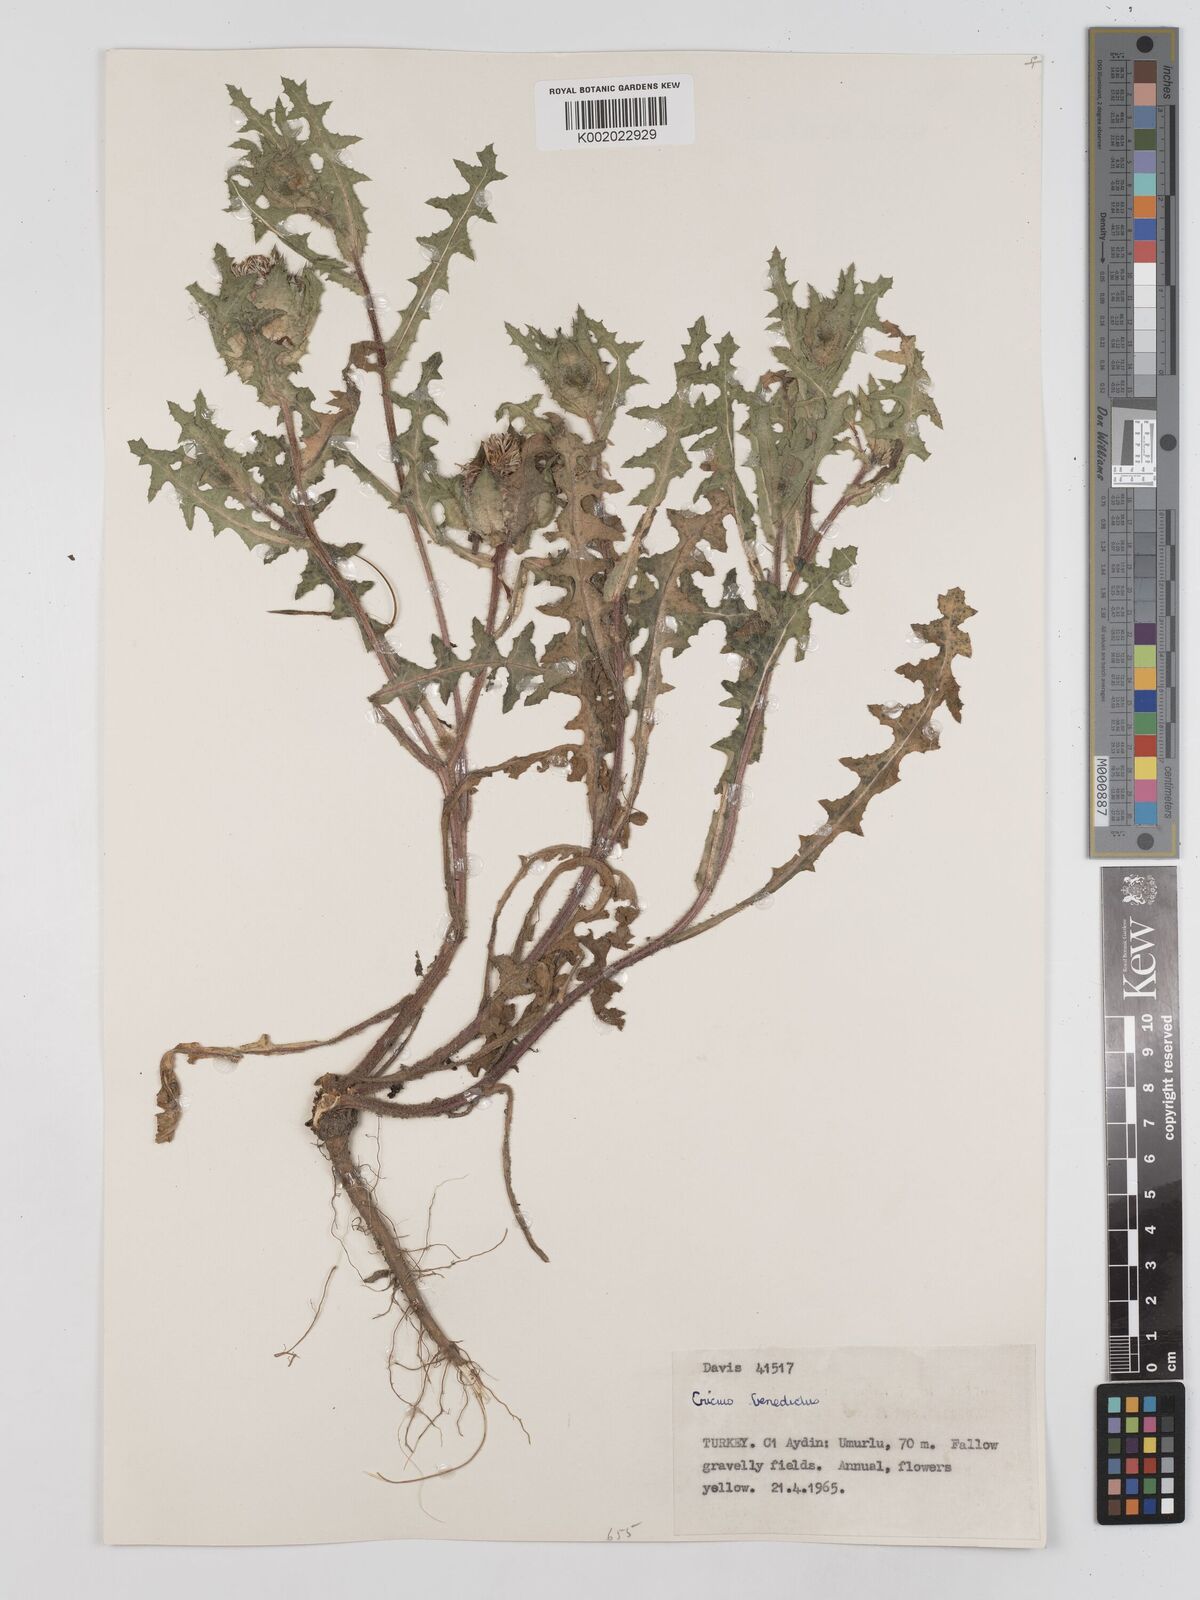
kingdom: Plantae
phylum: Tracheophyta
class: Magnoliopsida
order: Asterales
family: Asteraceae
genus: Centaurea
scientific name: Centaurea benedicta
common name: Blessed thistle
